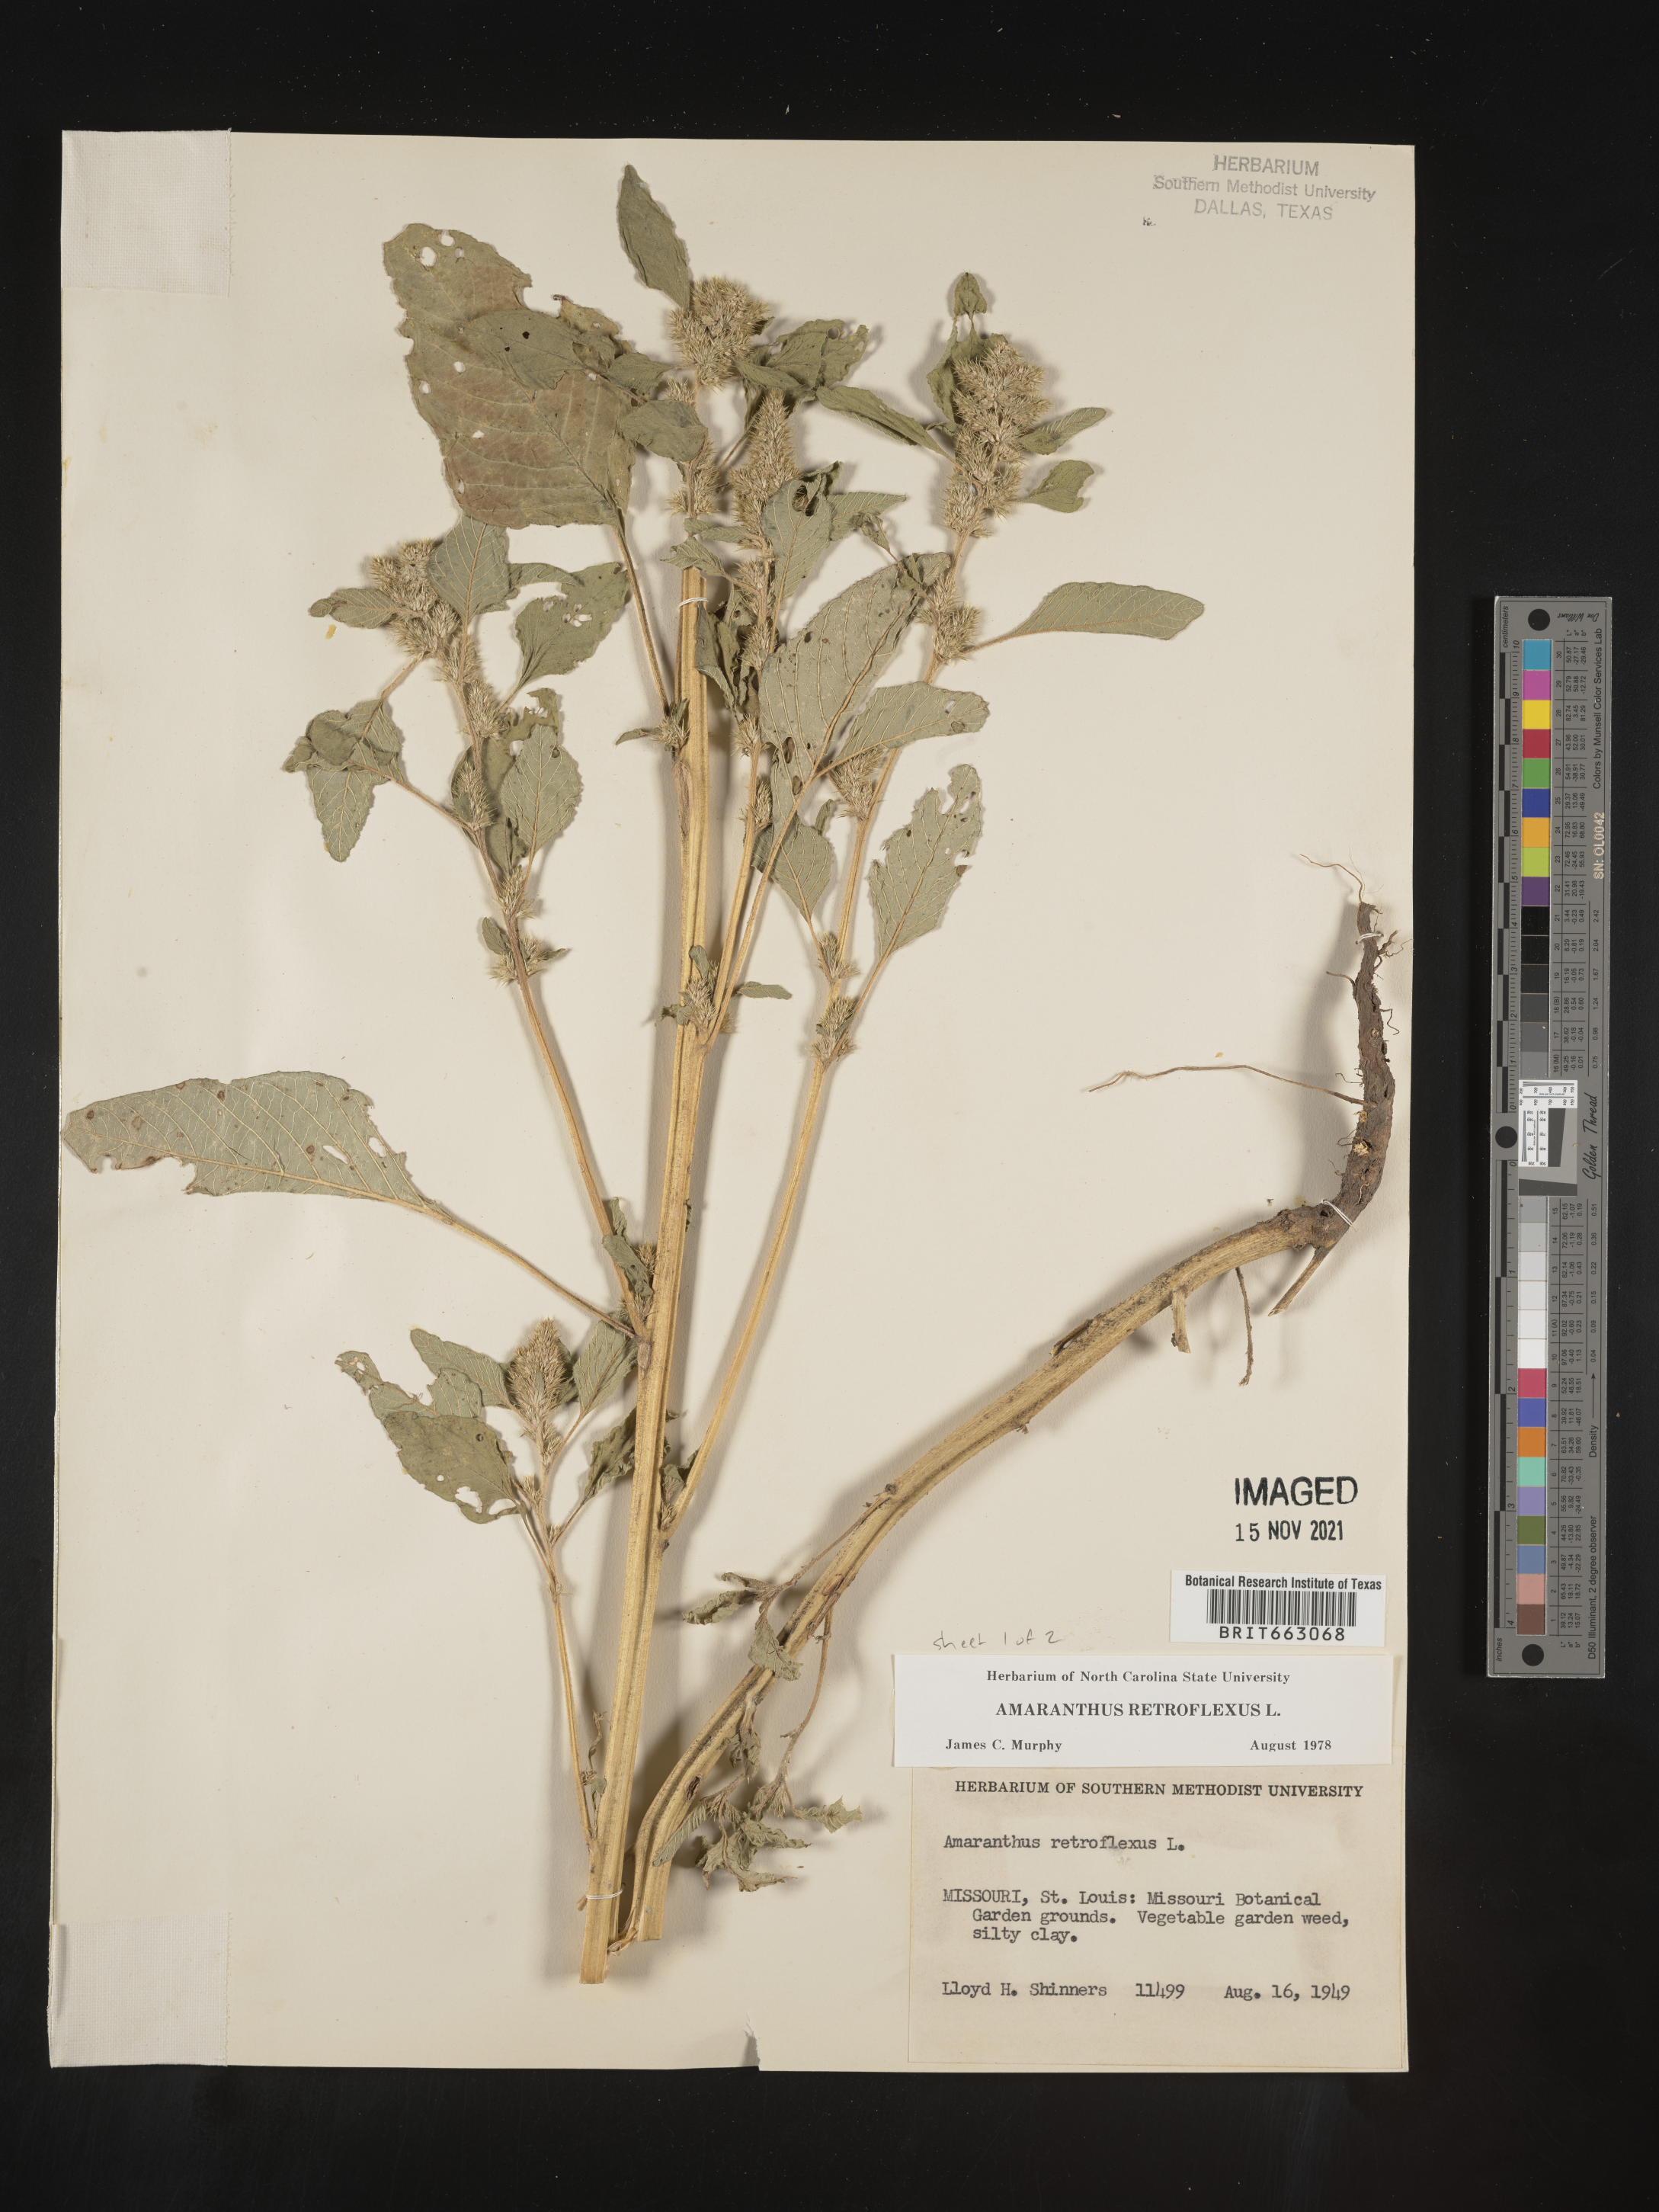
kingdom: Plantae
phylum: Tracheophyta
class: Magnoliopsida
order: Caryophyllales
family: Amaranthaceae
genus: Amaranthus
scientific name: Amaranthus retroflexus
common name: Redroot amaranth
